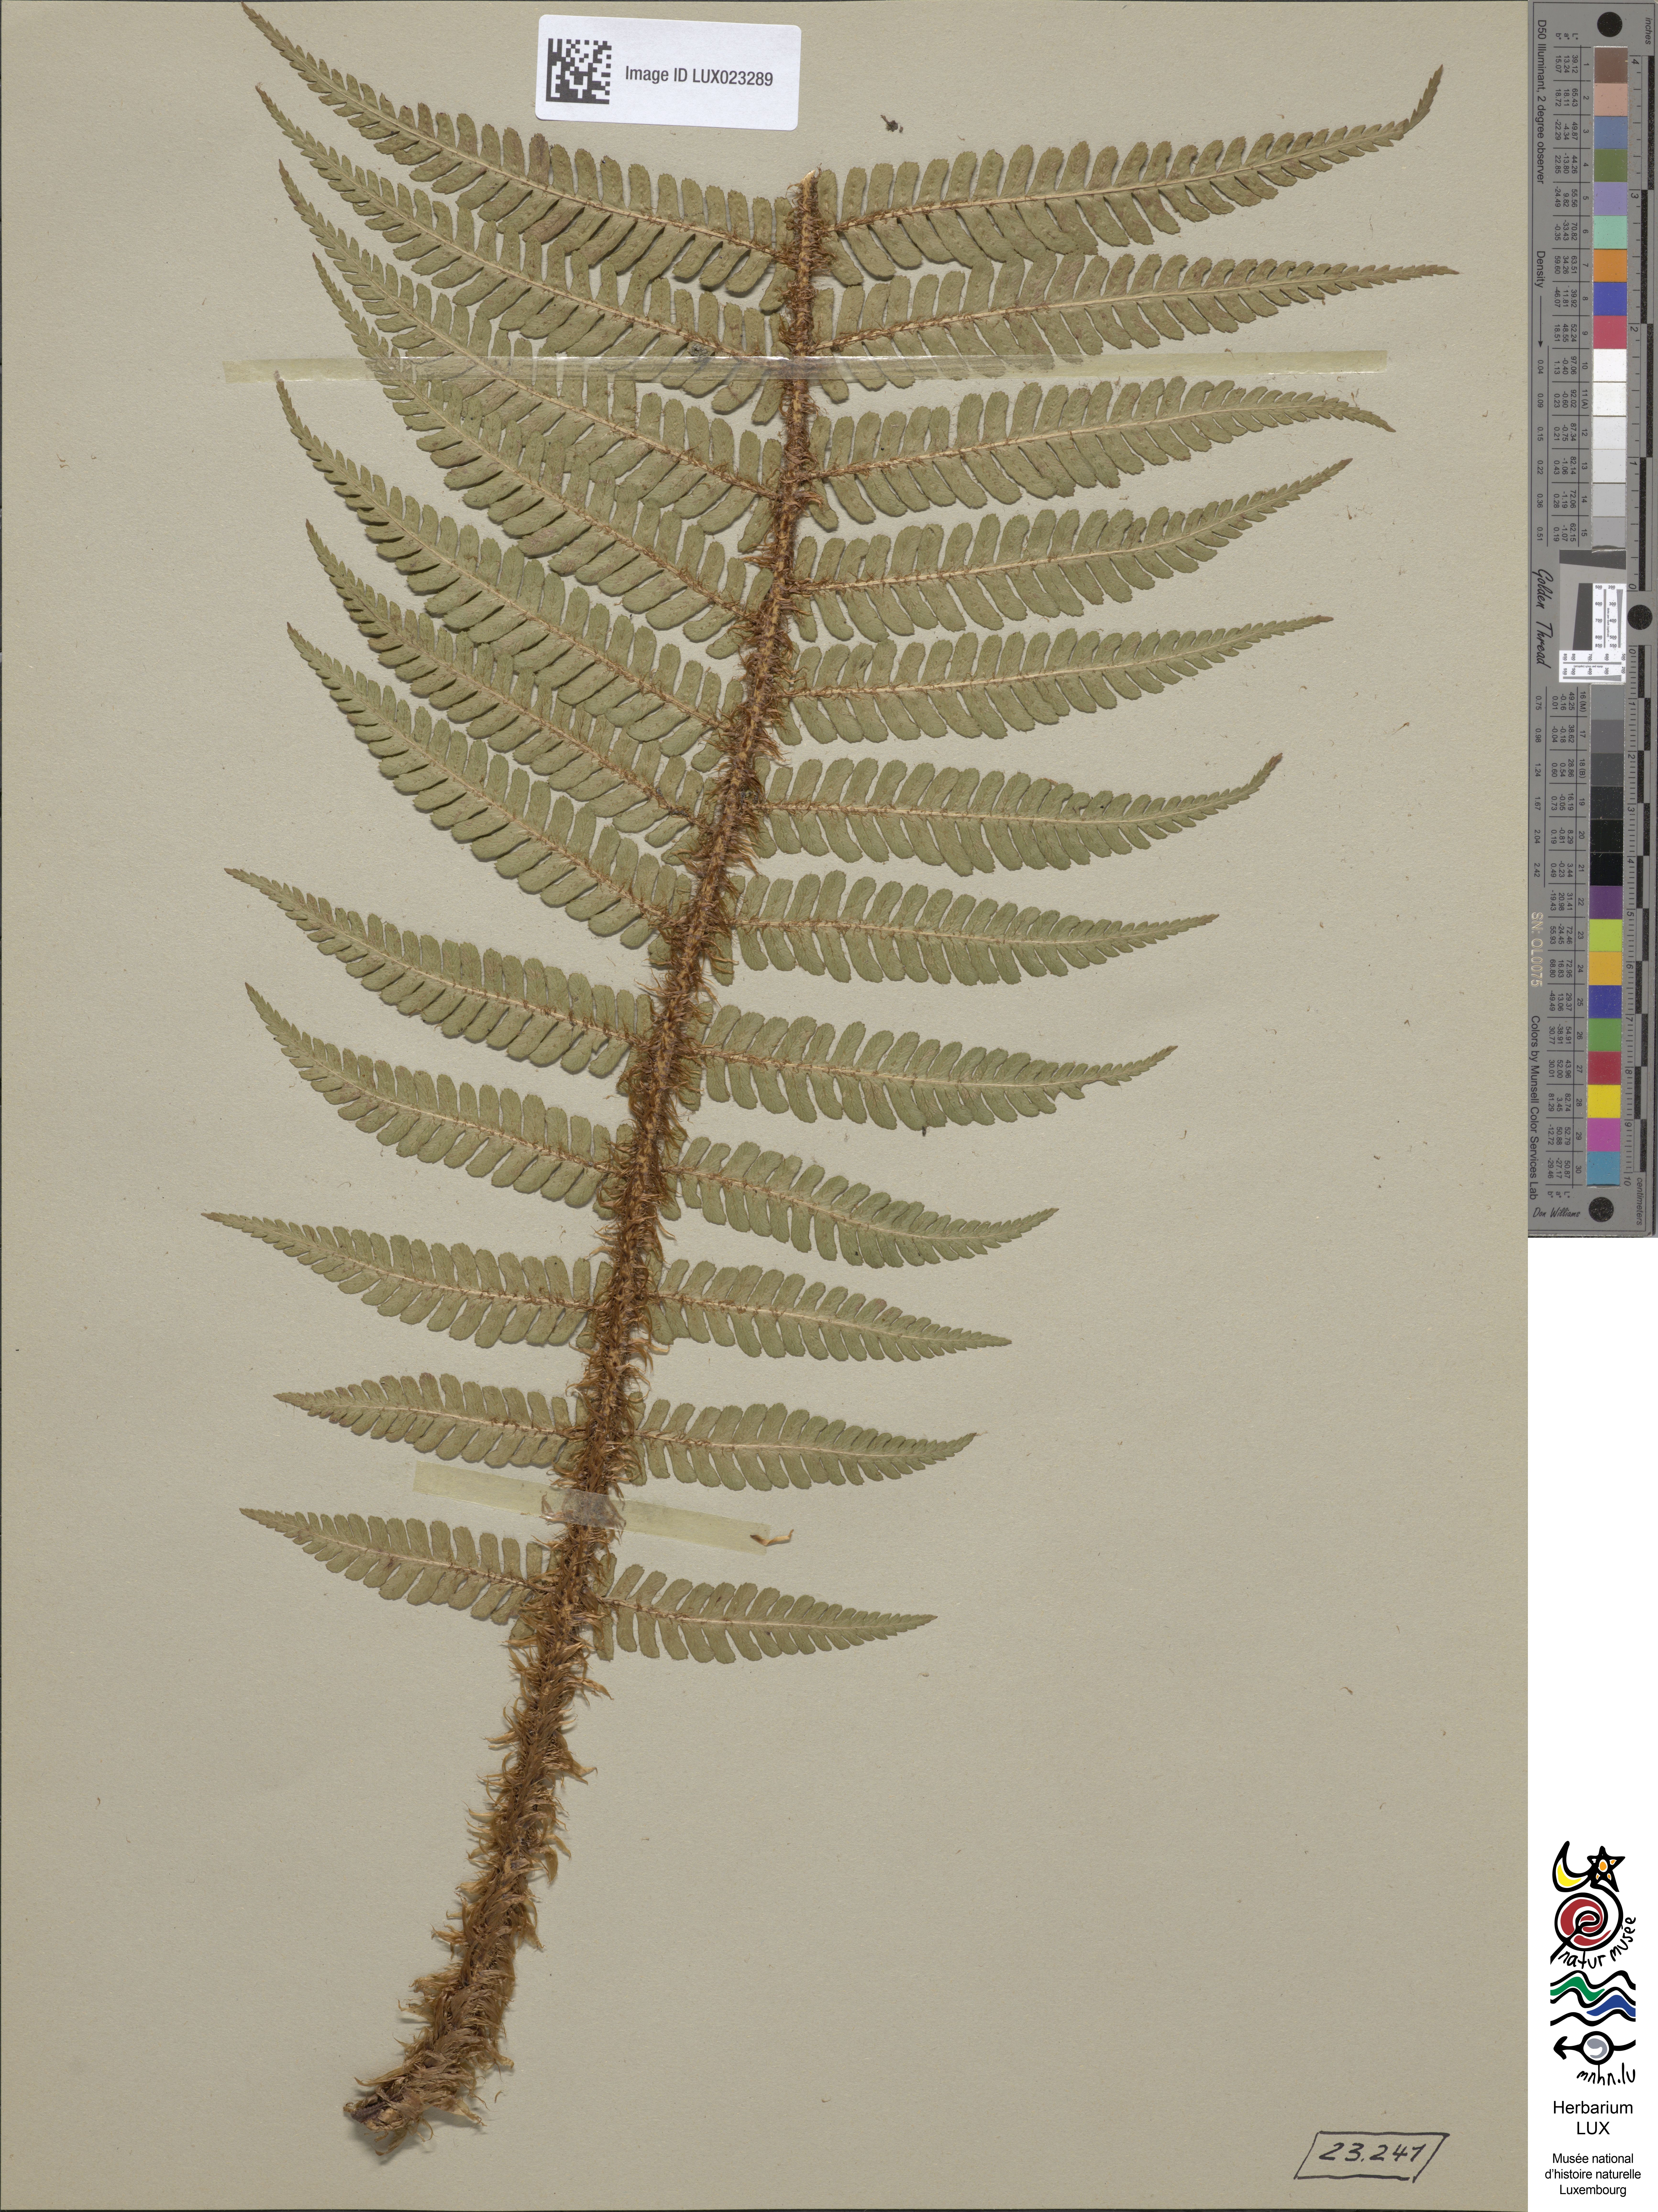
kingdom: Plantae
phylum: Tracheophyta
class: Polypodiopsida
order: Polypodiales
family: Dryopteridaceae
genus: Dryopteris
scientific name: Dryopteris borreri
